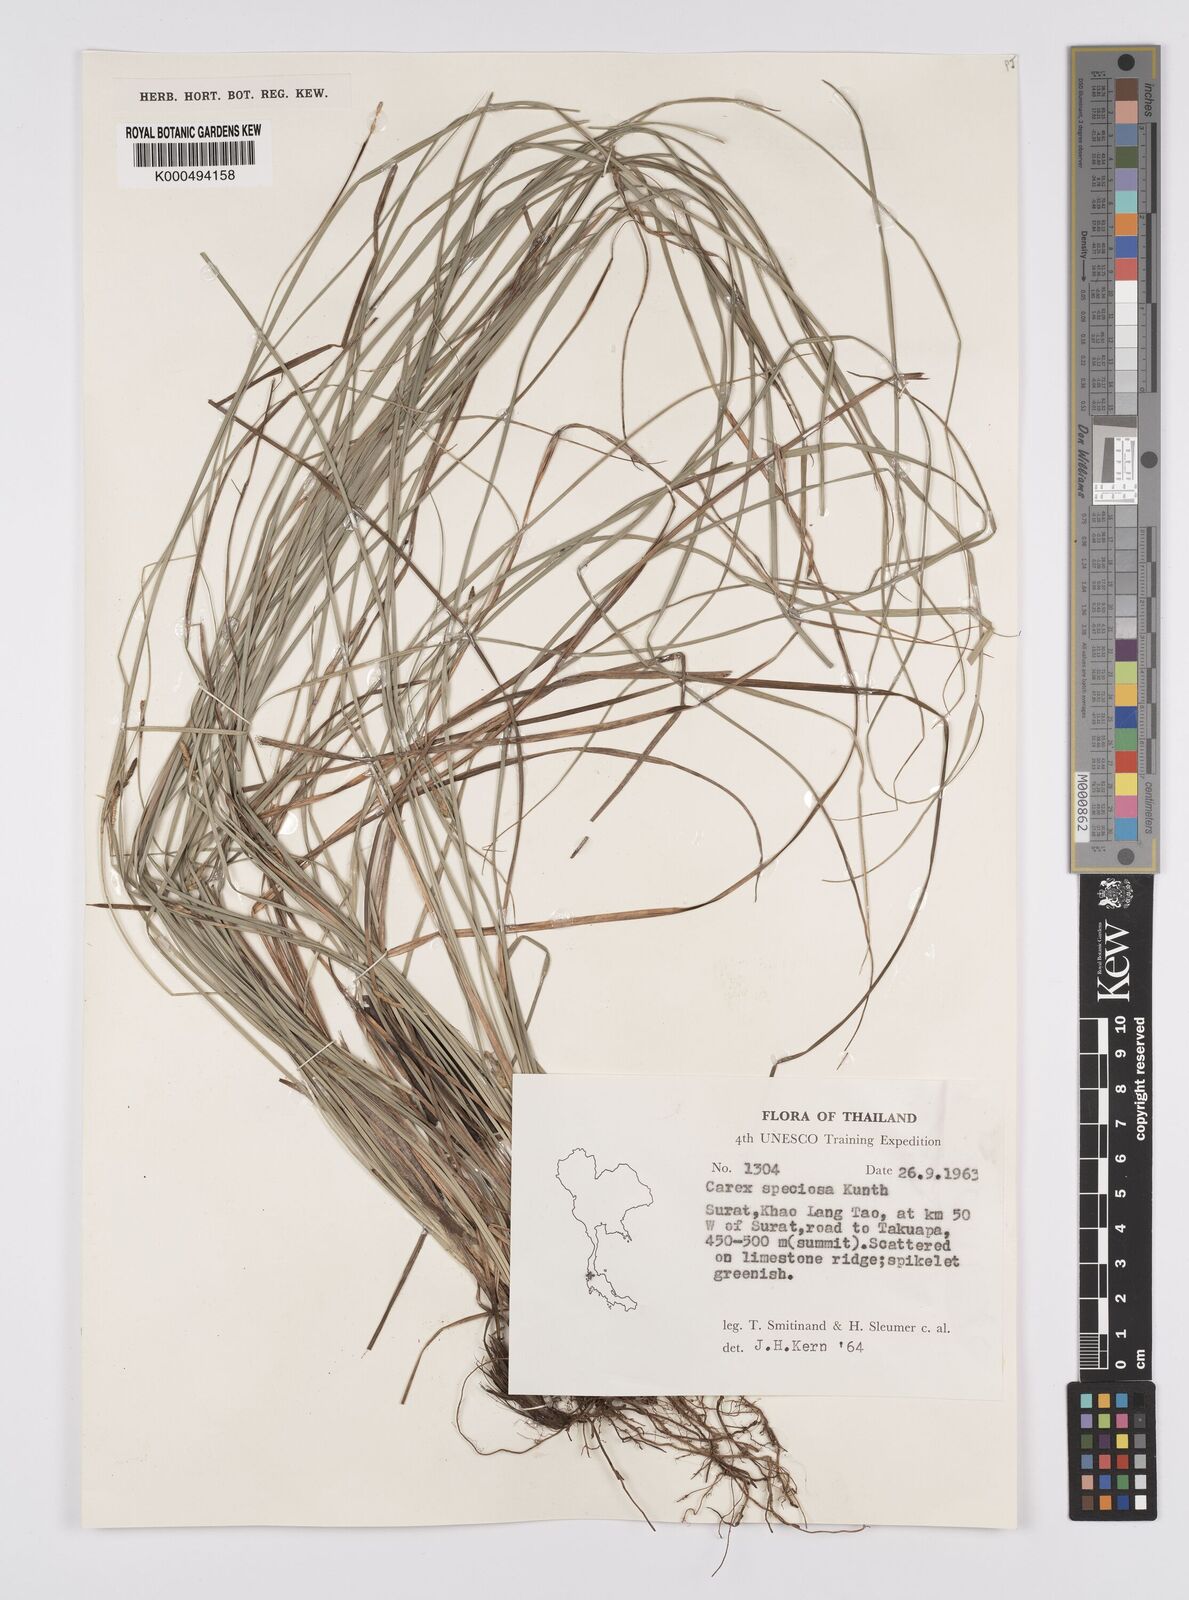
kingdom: Plantae
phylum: Tracheophyta
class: Liliopsida
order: Poales
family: Cyperaceae
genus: Carex
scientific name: Carex speciosa
